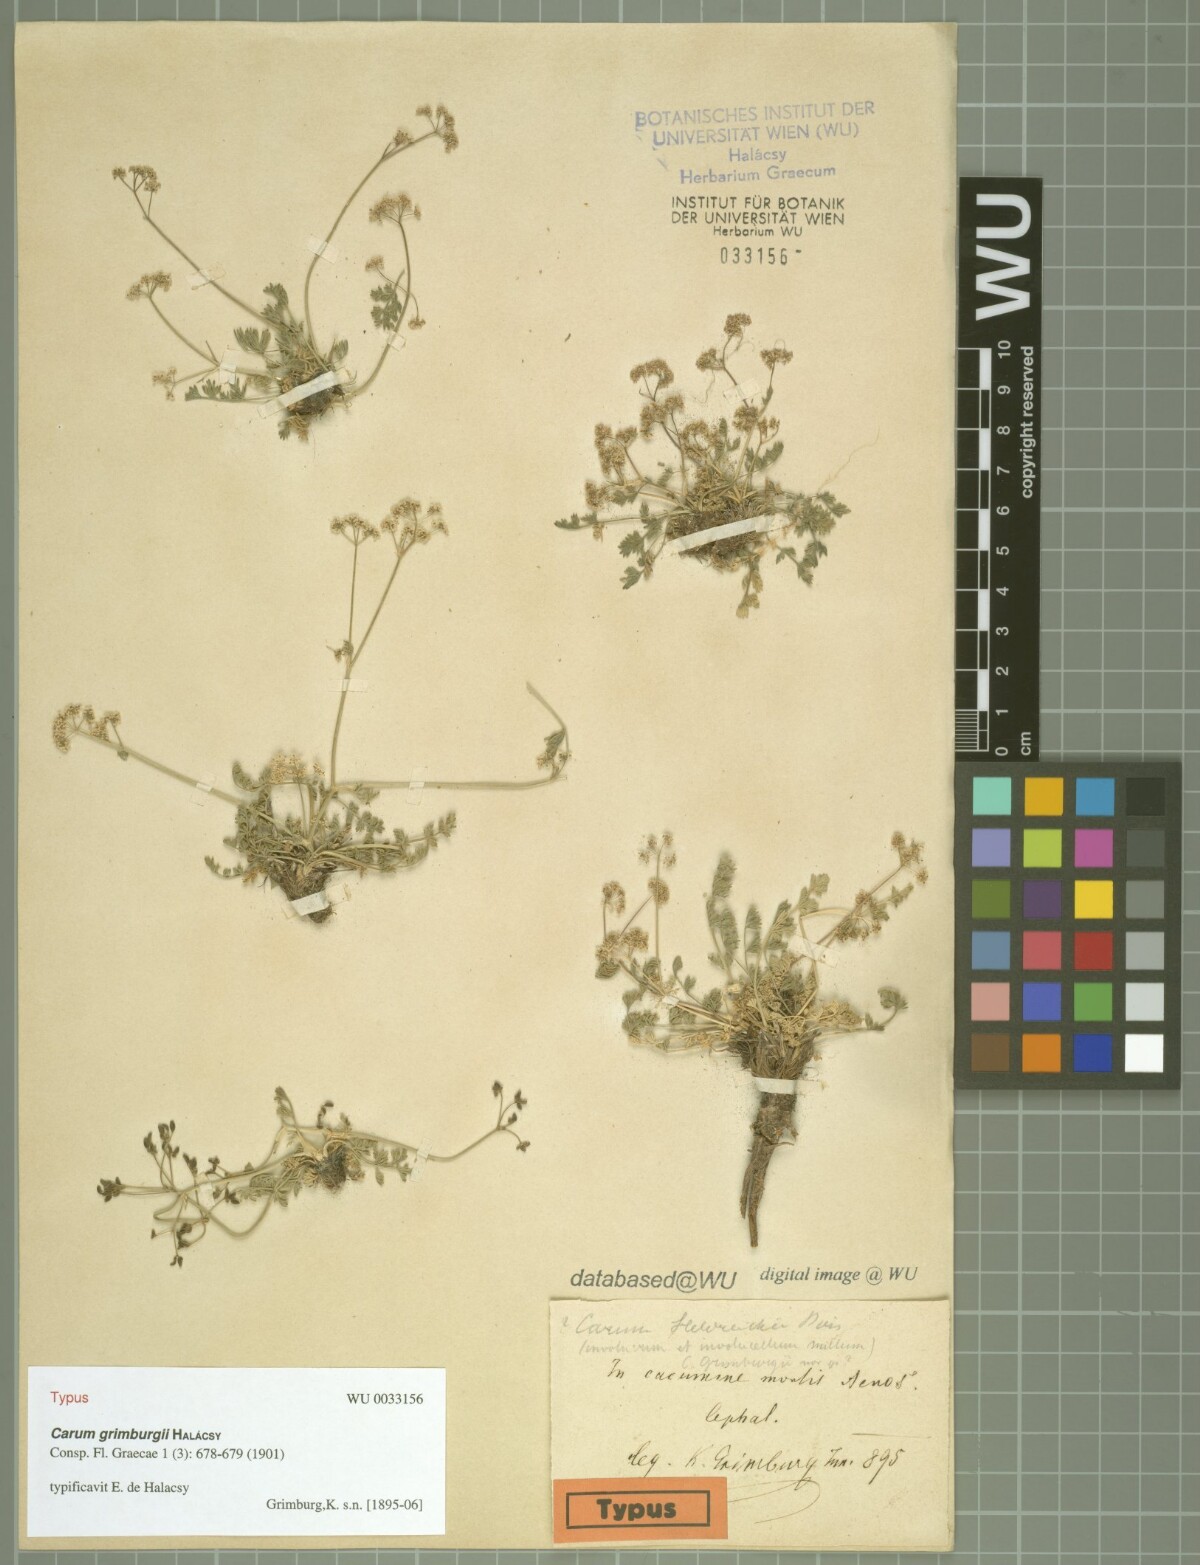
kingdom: Plantae
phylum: Tracheophyta
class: Magnoliopsida
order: Apiales
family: Apiaceae
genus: Trinia
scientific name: Trinia glauca
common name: Honewort
